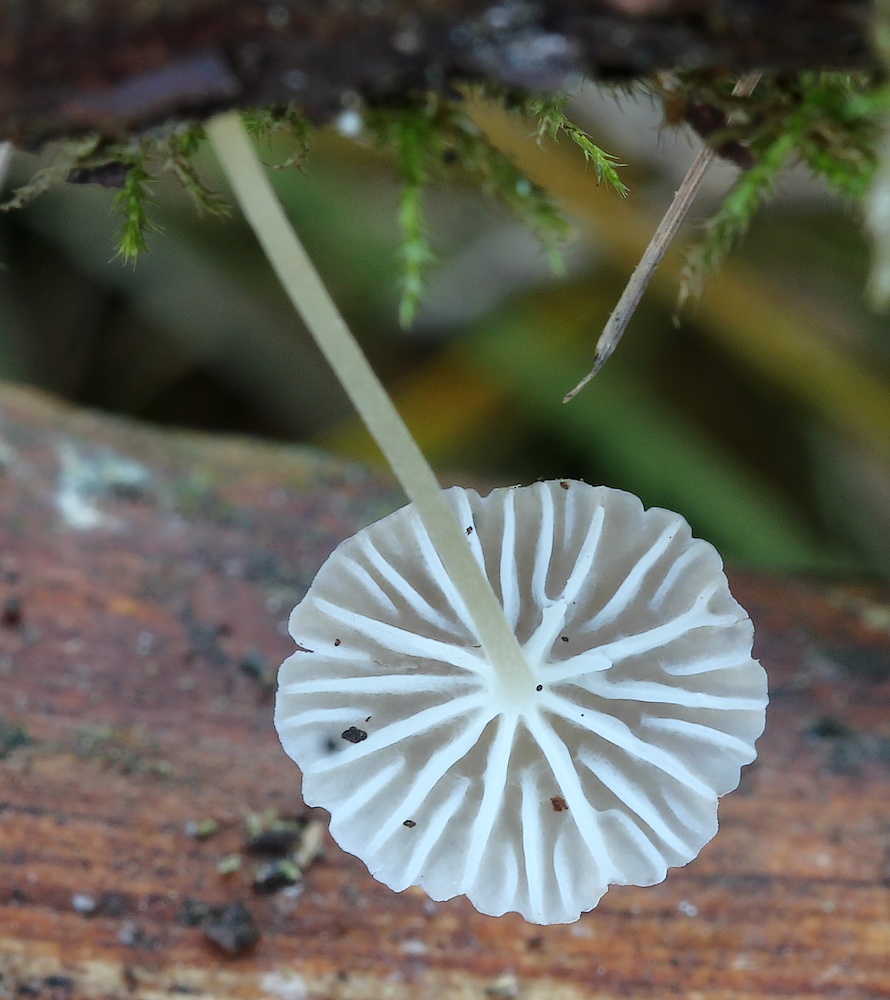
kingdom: Fungi
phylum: Basidiomycota
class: Agaricomycetes
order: Agaricales
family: Porotheleaceae
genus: Phloeomana
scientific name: Phloeomana speirea
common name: kvist-huesvamp
